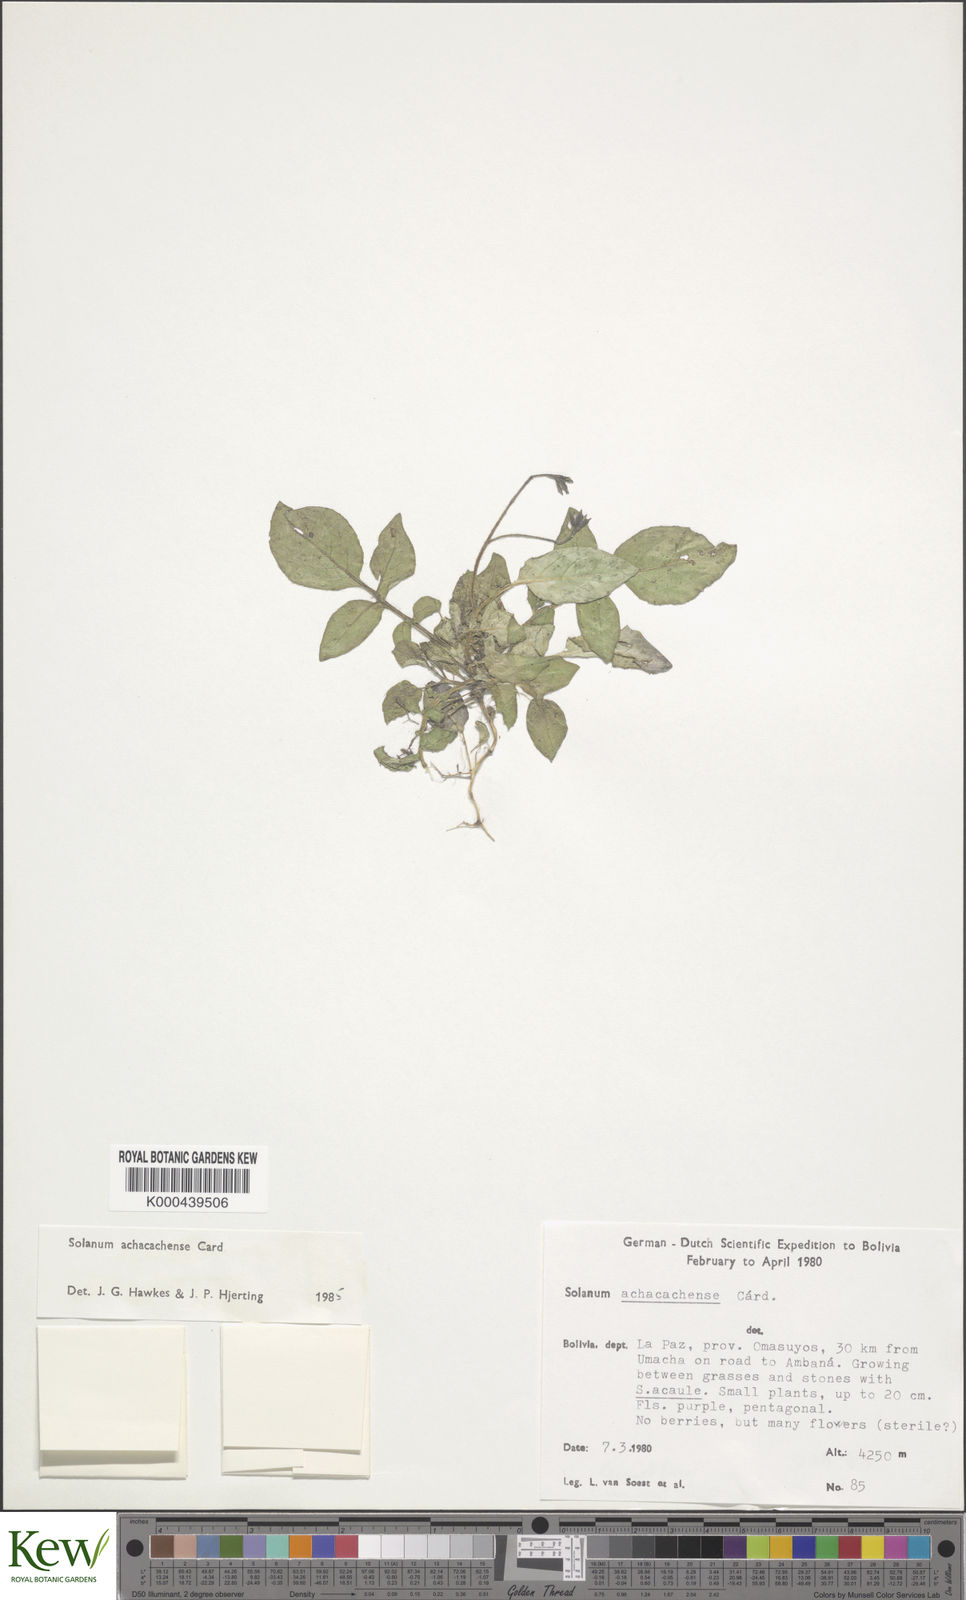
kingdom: Plantae
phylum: Tracheophyta
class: Magnoliopsida
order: Solanales
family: Solanaceae
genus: Solanum
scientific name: Solanum brevicaule
